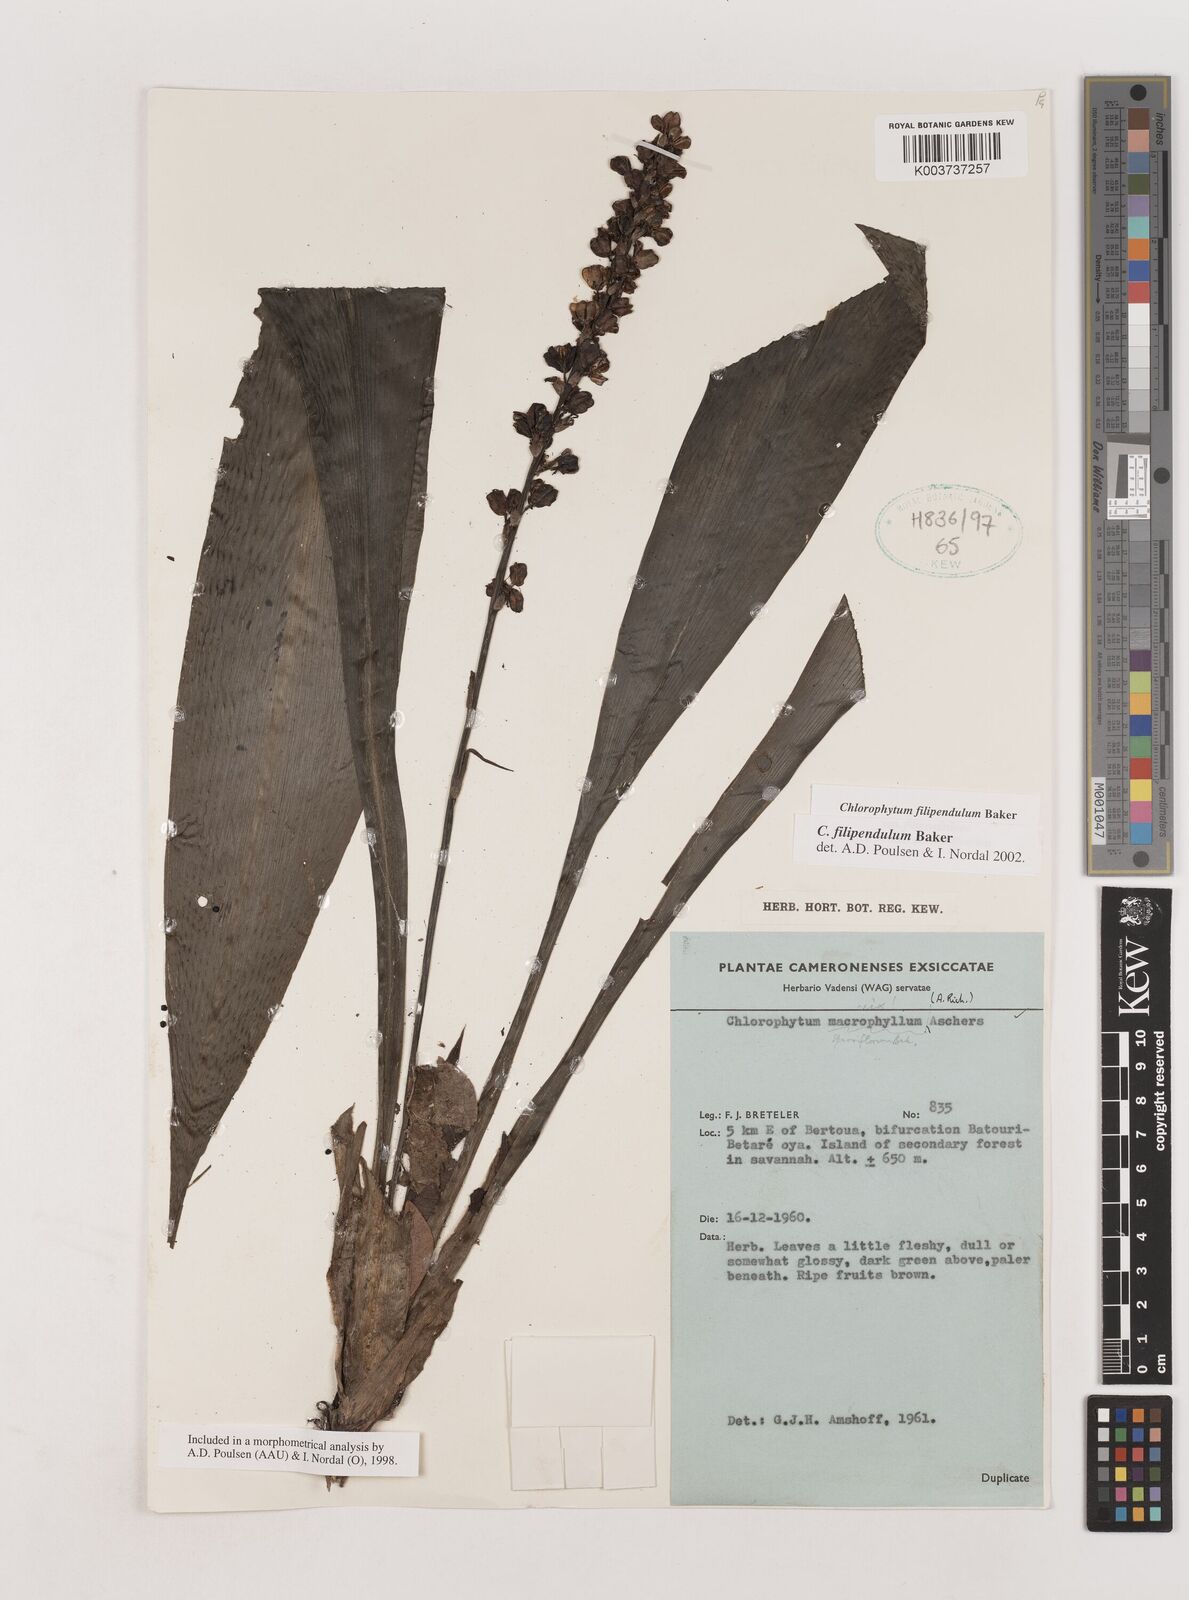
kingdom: Plantae
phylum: Tracheophyta
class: Liliopsida
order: Asparagales
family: Asparagaceae
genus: Chlorophytum
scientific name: Chlorophytum filipendulum
